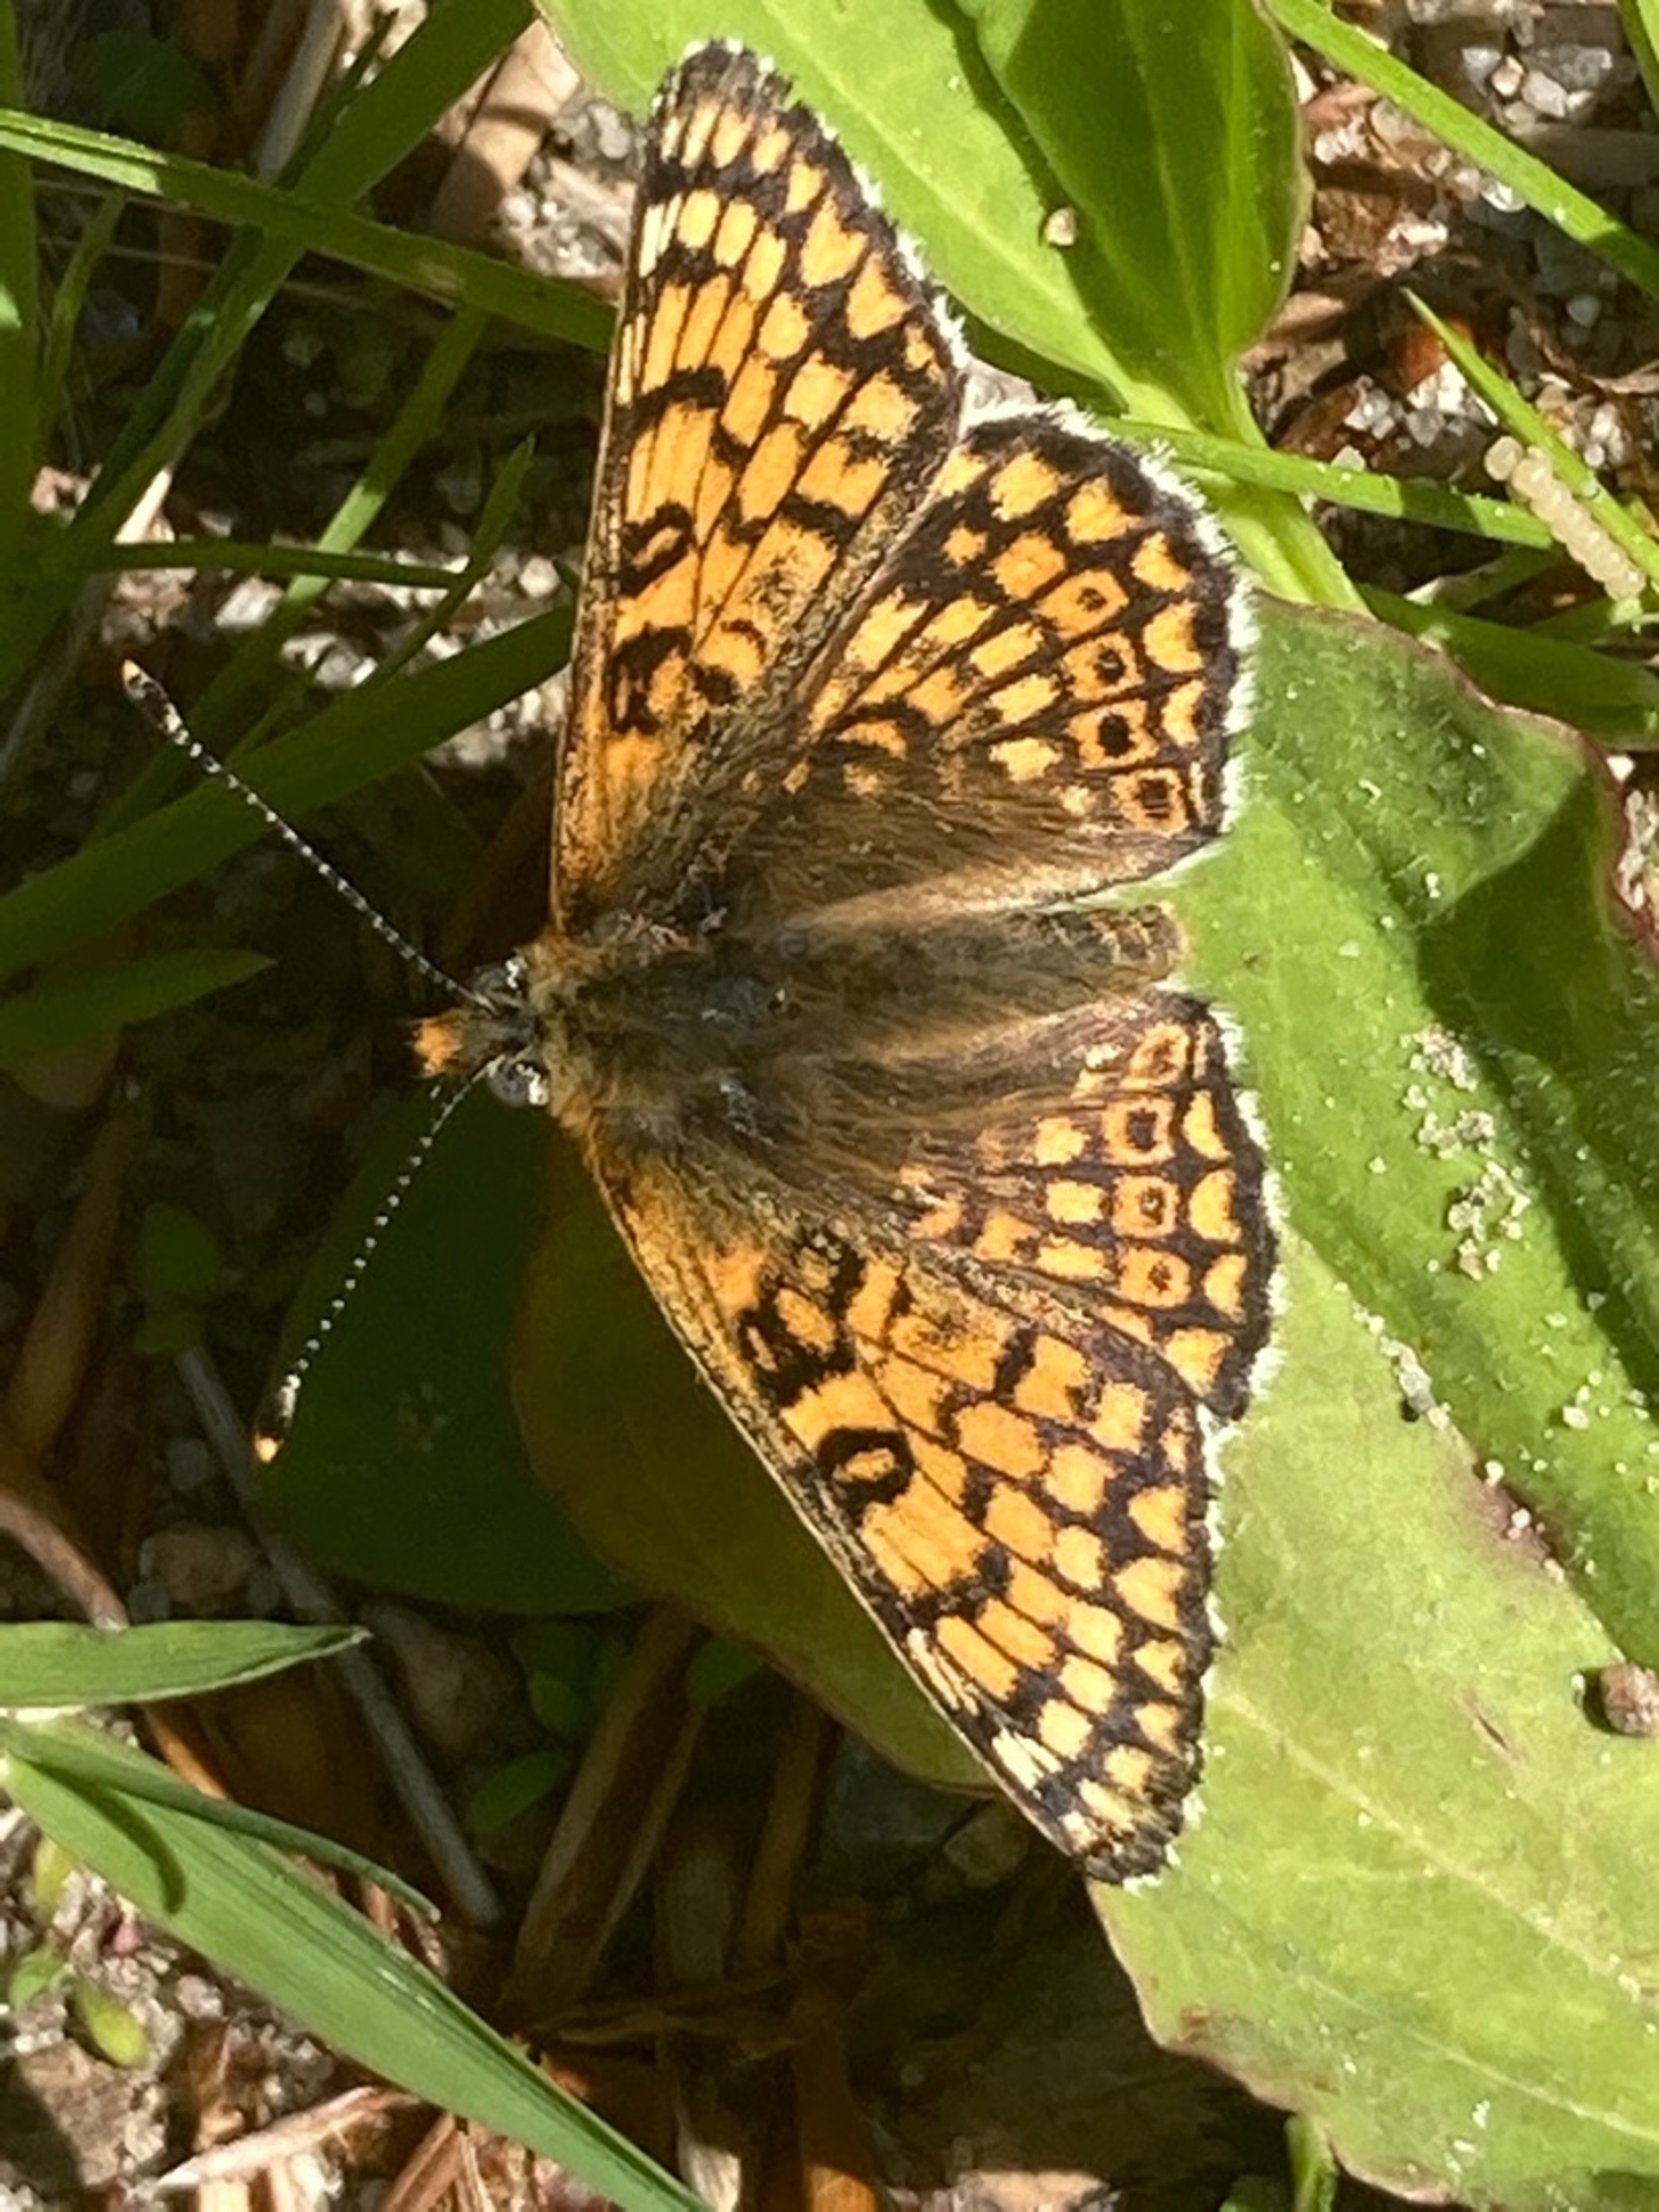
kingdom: Animalia
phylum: Arthropoda
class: Insecta
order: Lepidoptera
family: Nymphalidae
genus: Melitaea
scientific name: Melitaea cinxia
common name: Okkergul pletvinge
